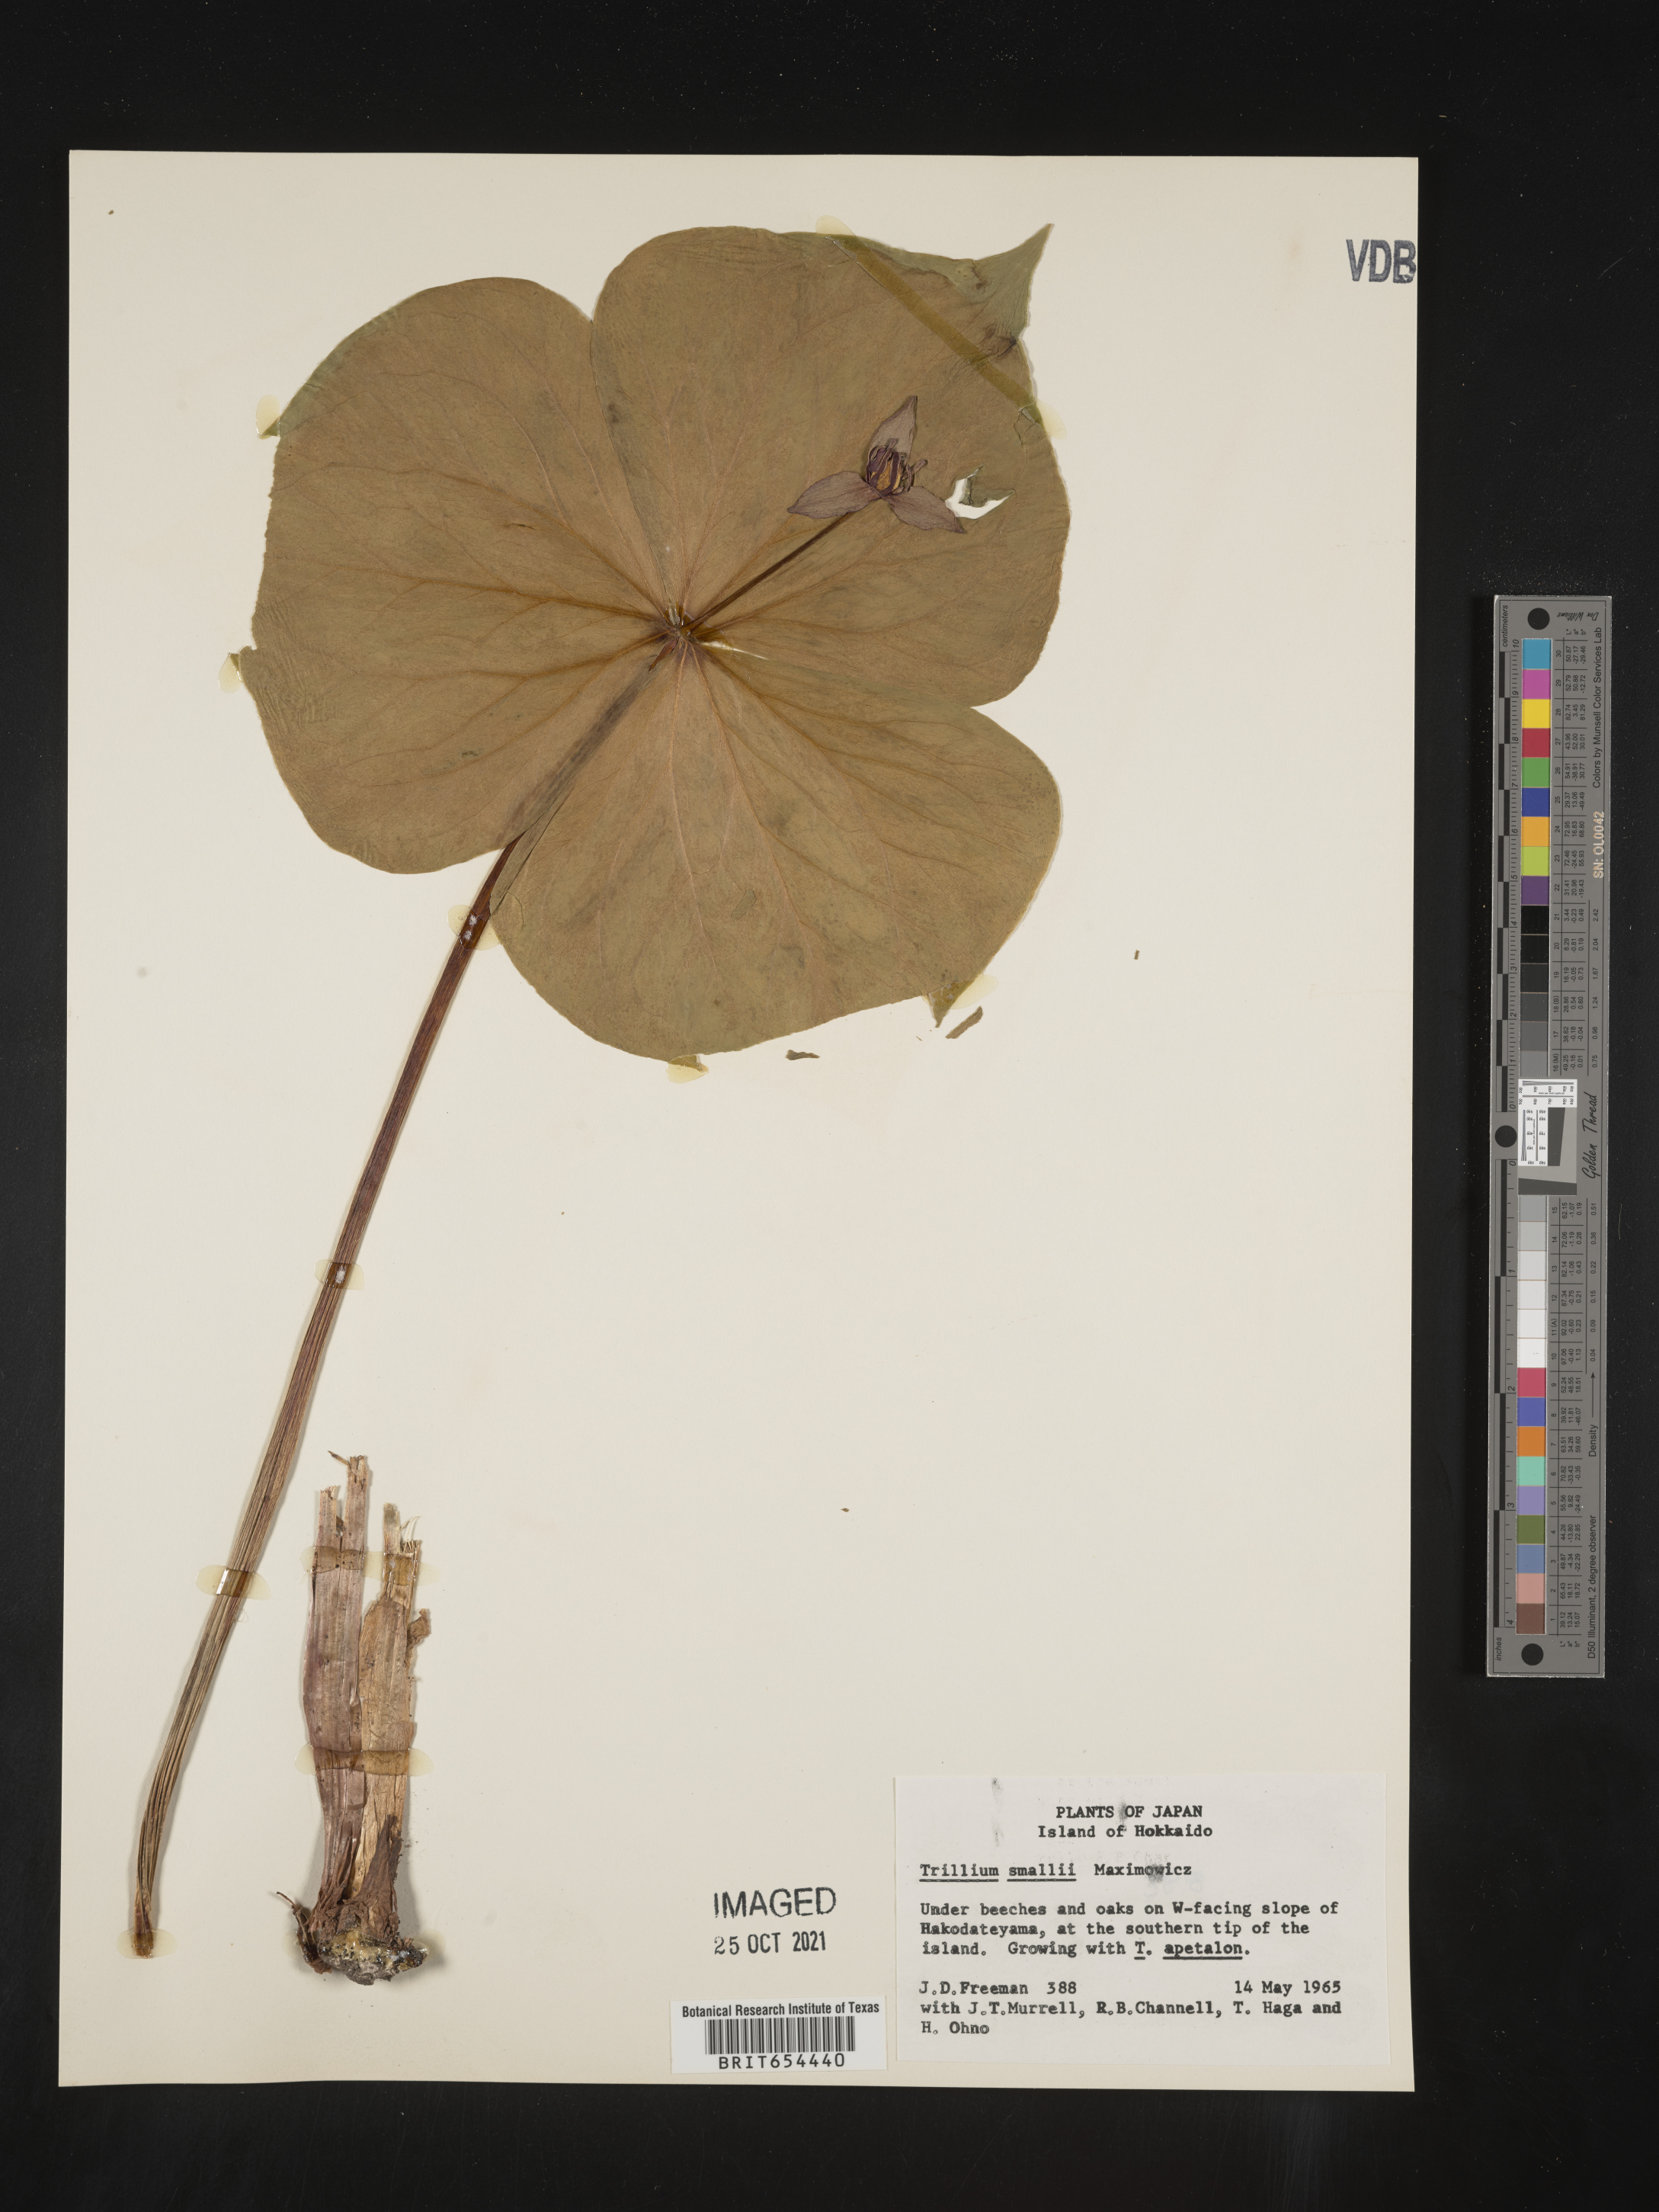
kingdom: Plantae
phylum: Tracheophyta
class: Liliopsida
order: Liliales
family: Melanthiaceae
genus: Trillium
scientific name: Trillium
